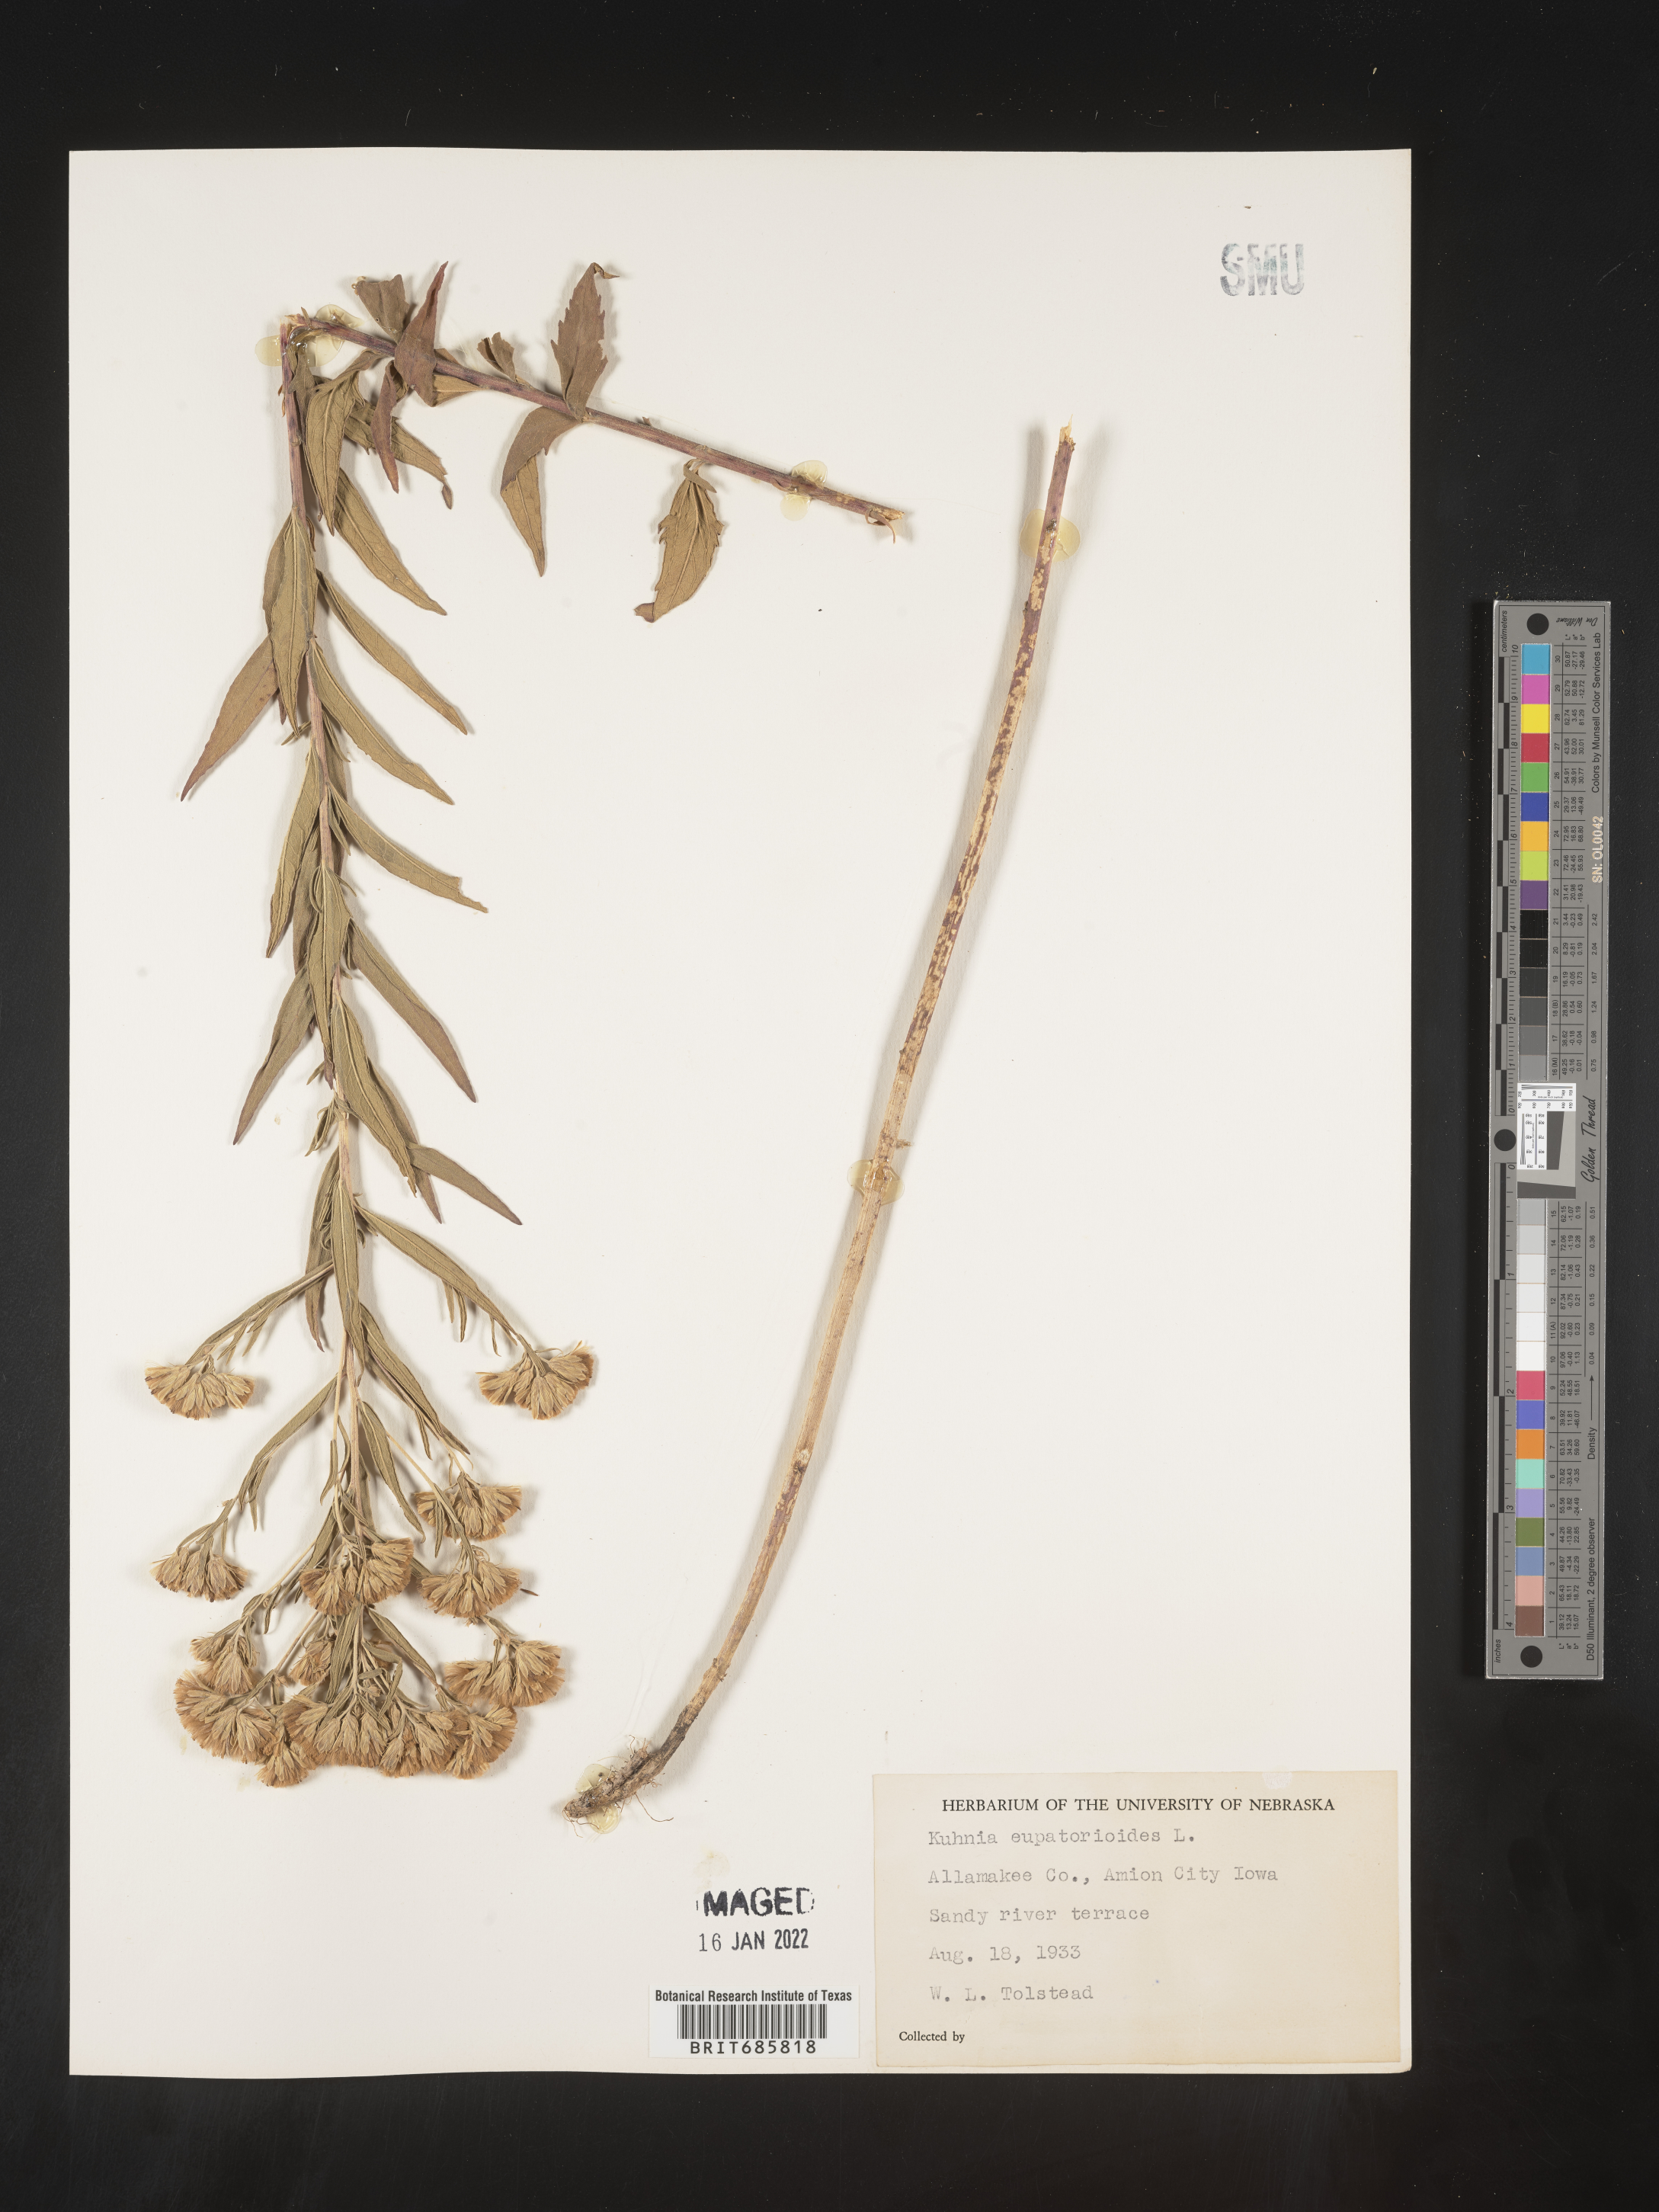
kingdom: Plantae
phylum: Tracheophyta
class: Magnoliopsida
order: Asterales
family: Asteraceae
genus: Brickellia
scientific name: Brickellia eupatorioides
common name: False boneset
